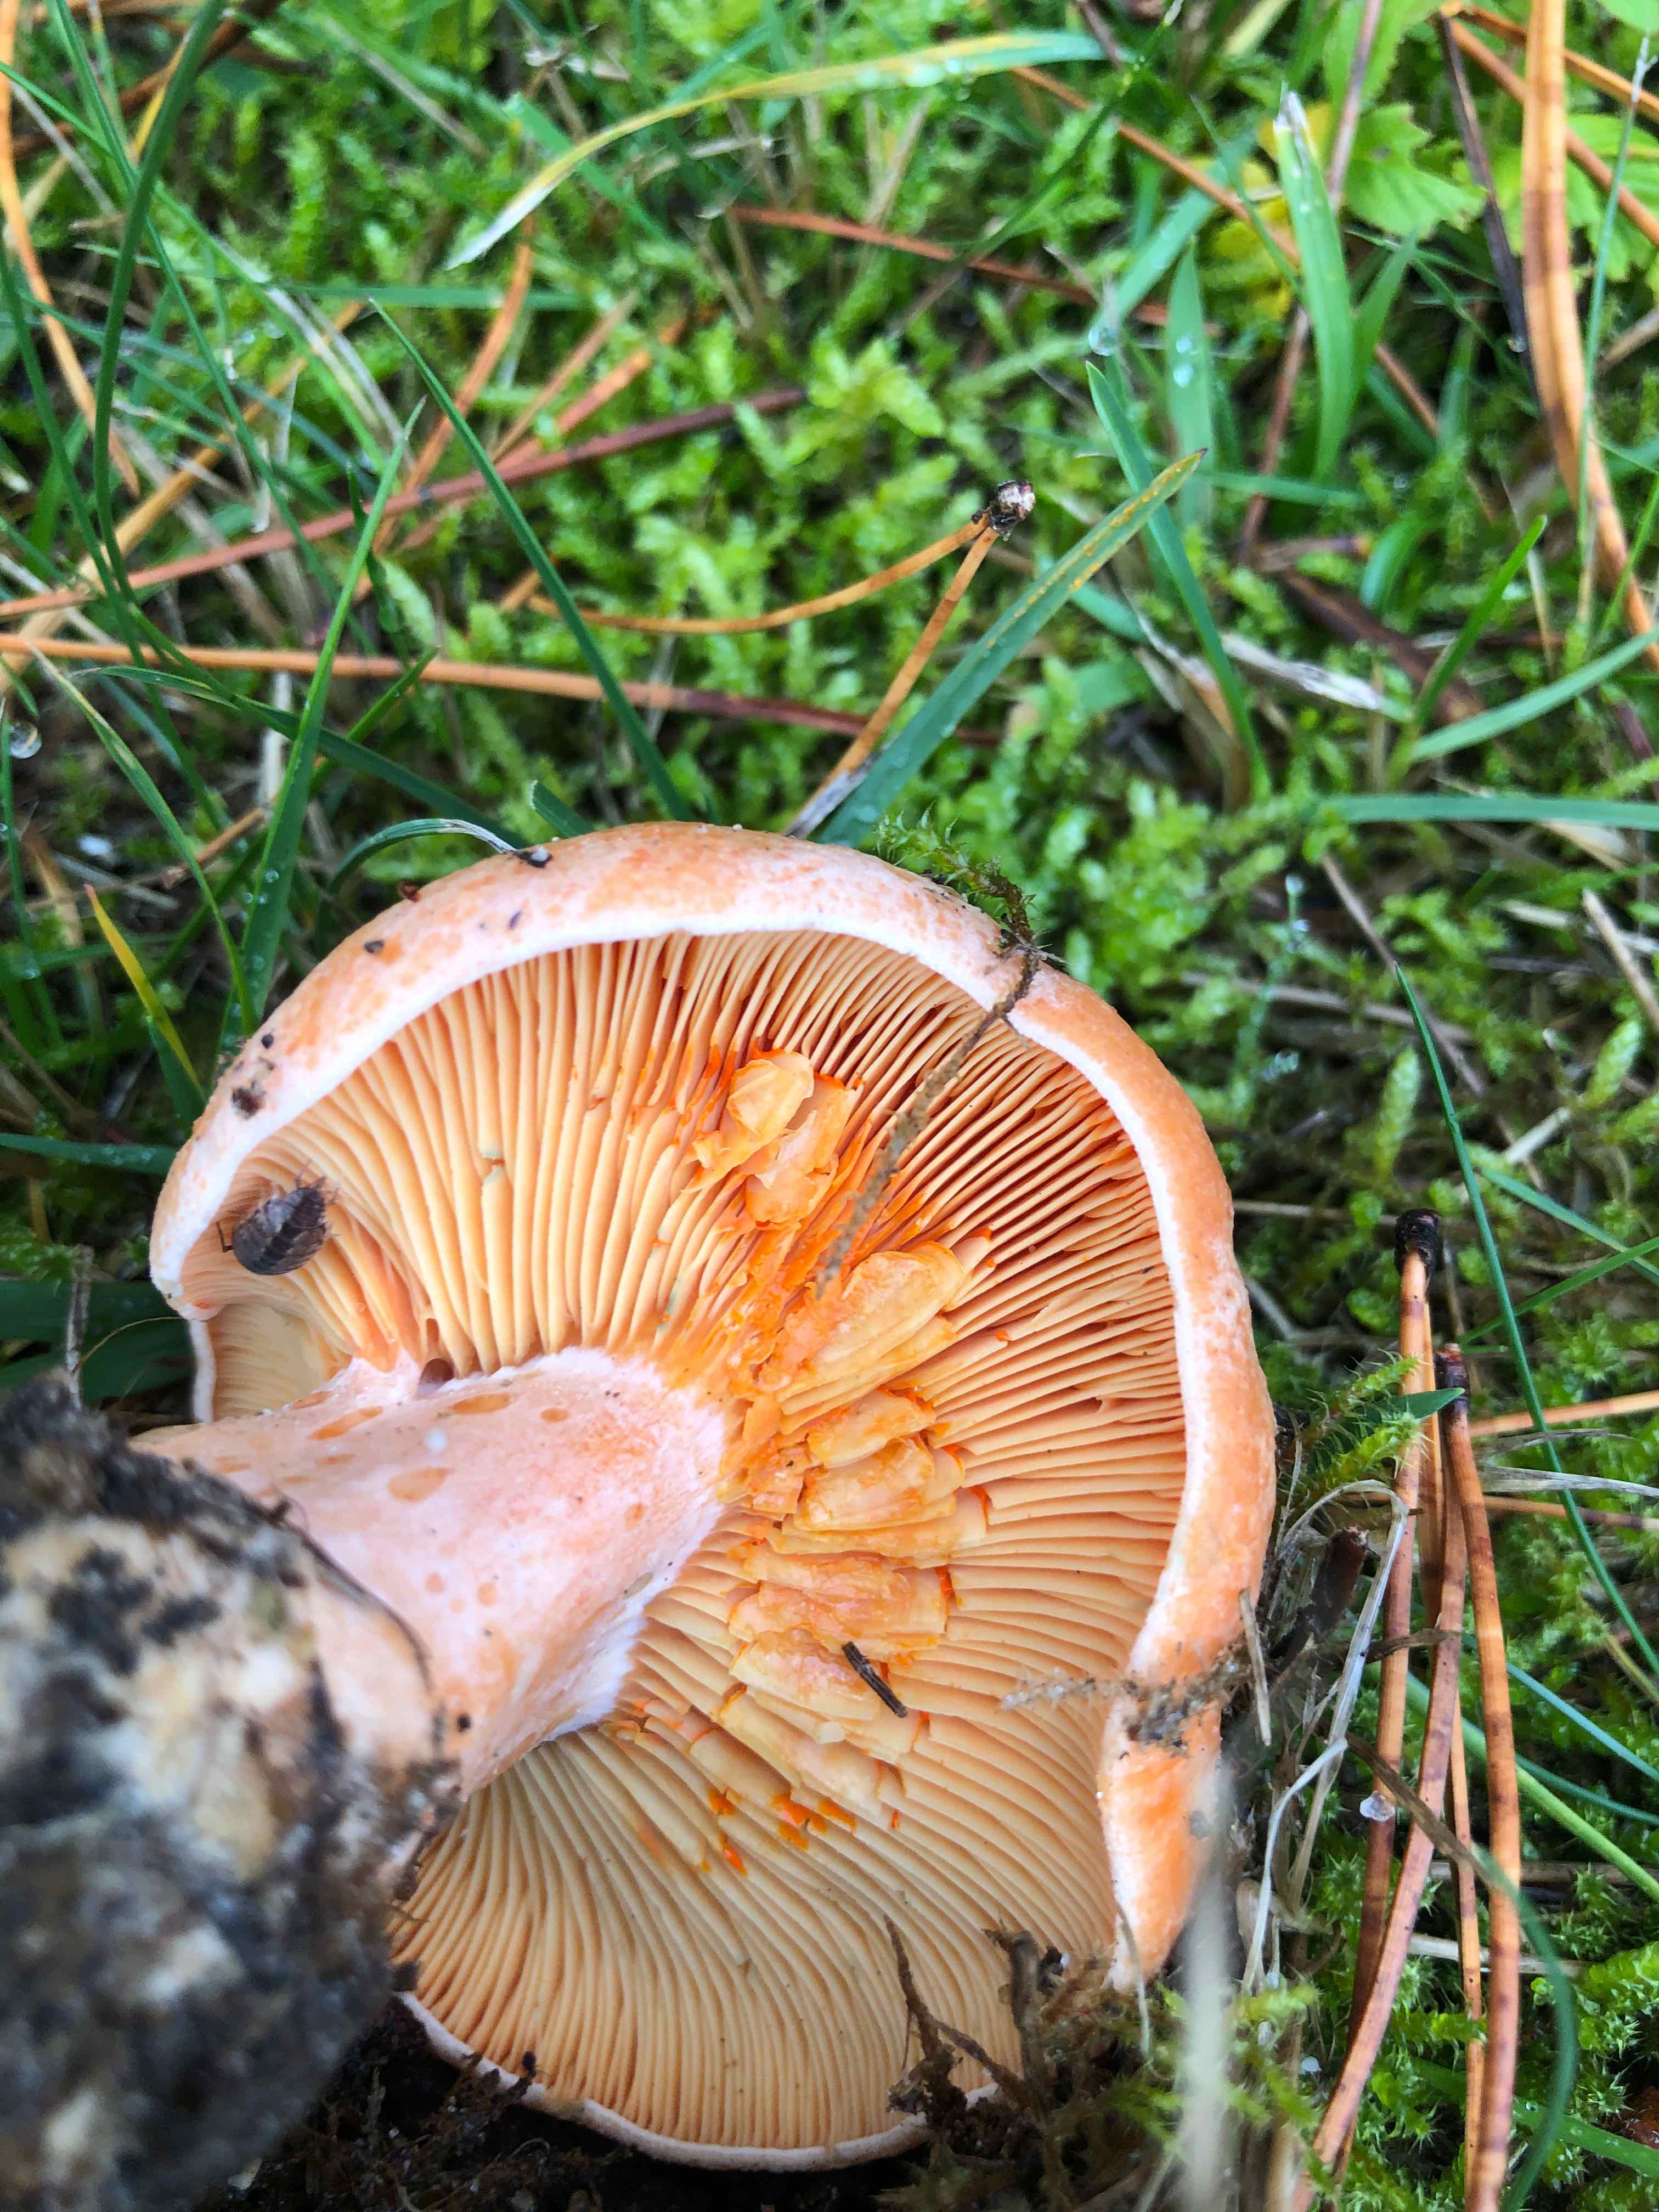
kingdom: Fungi
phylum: Basidiomycota
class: Agaricomycetes
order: Russulales
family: Russulaceae
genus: Lactarius
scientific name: Lactarius deliciosus
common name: velsmagende mælkehat
